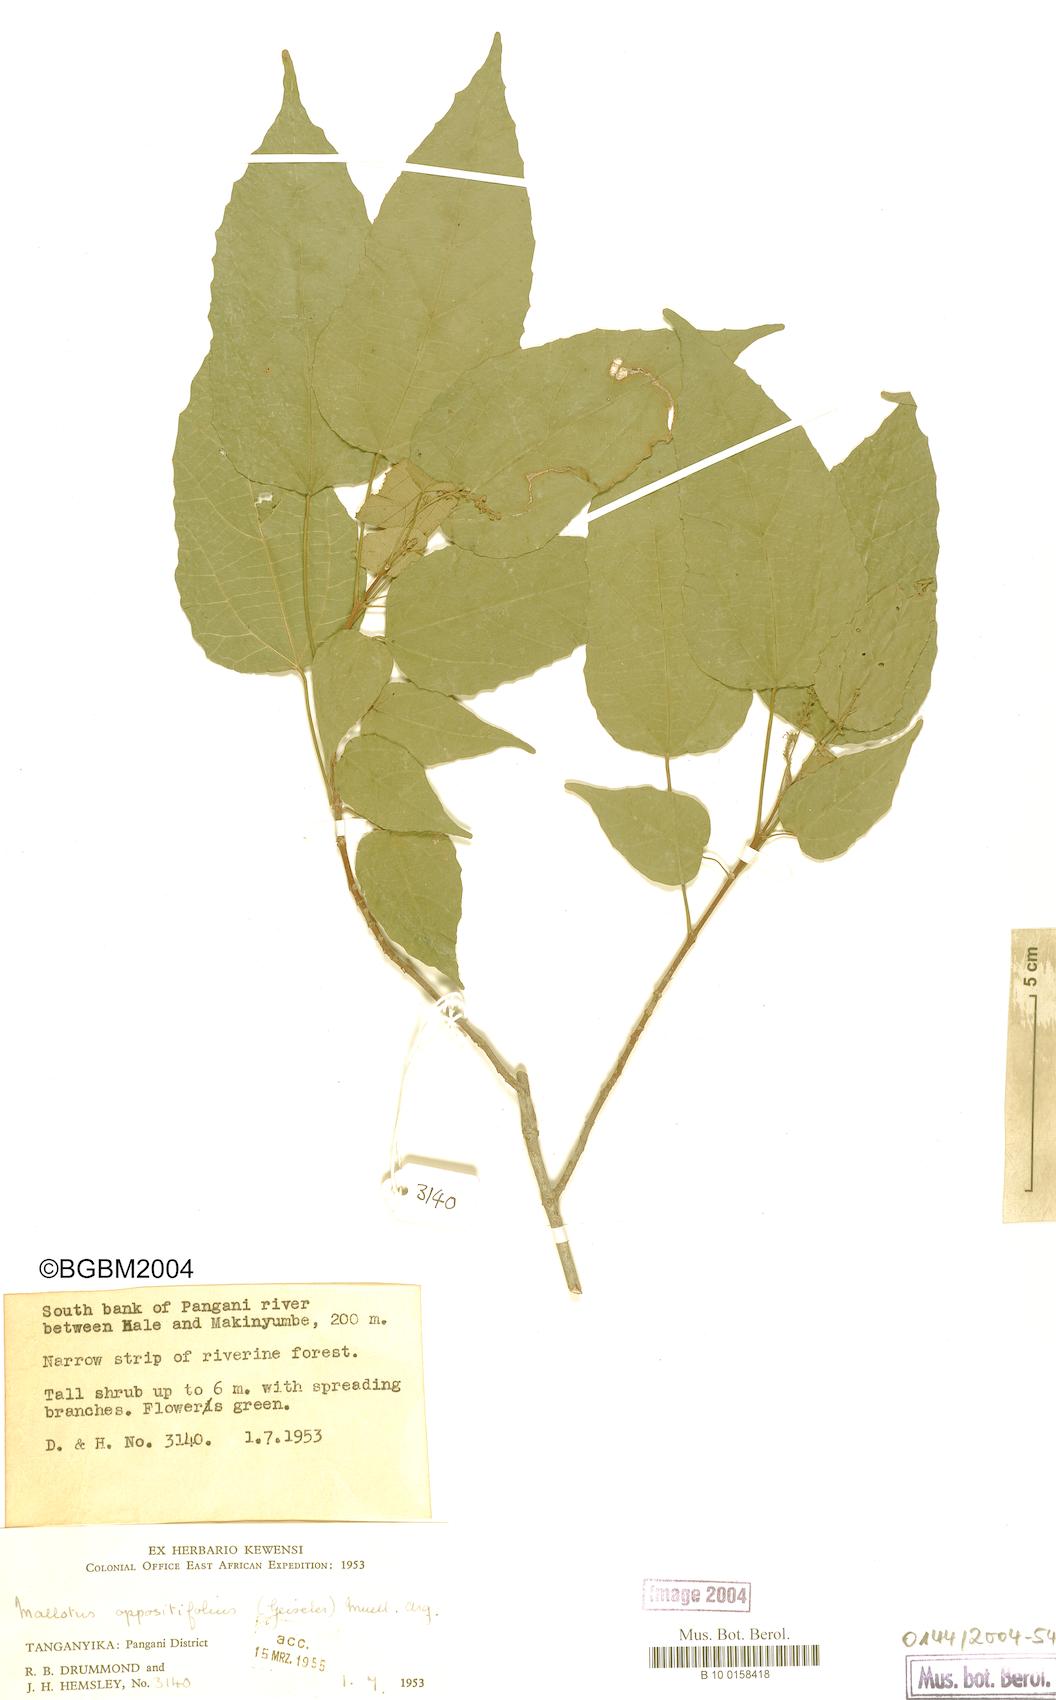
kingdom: Plantae
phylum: Tracheophyta
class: Magnoliopsida
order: Malpighiales
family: Euphorbiaceae
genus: Mallotus
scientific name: Mallotus oppositifolius
